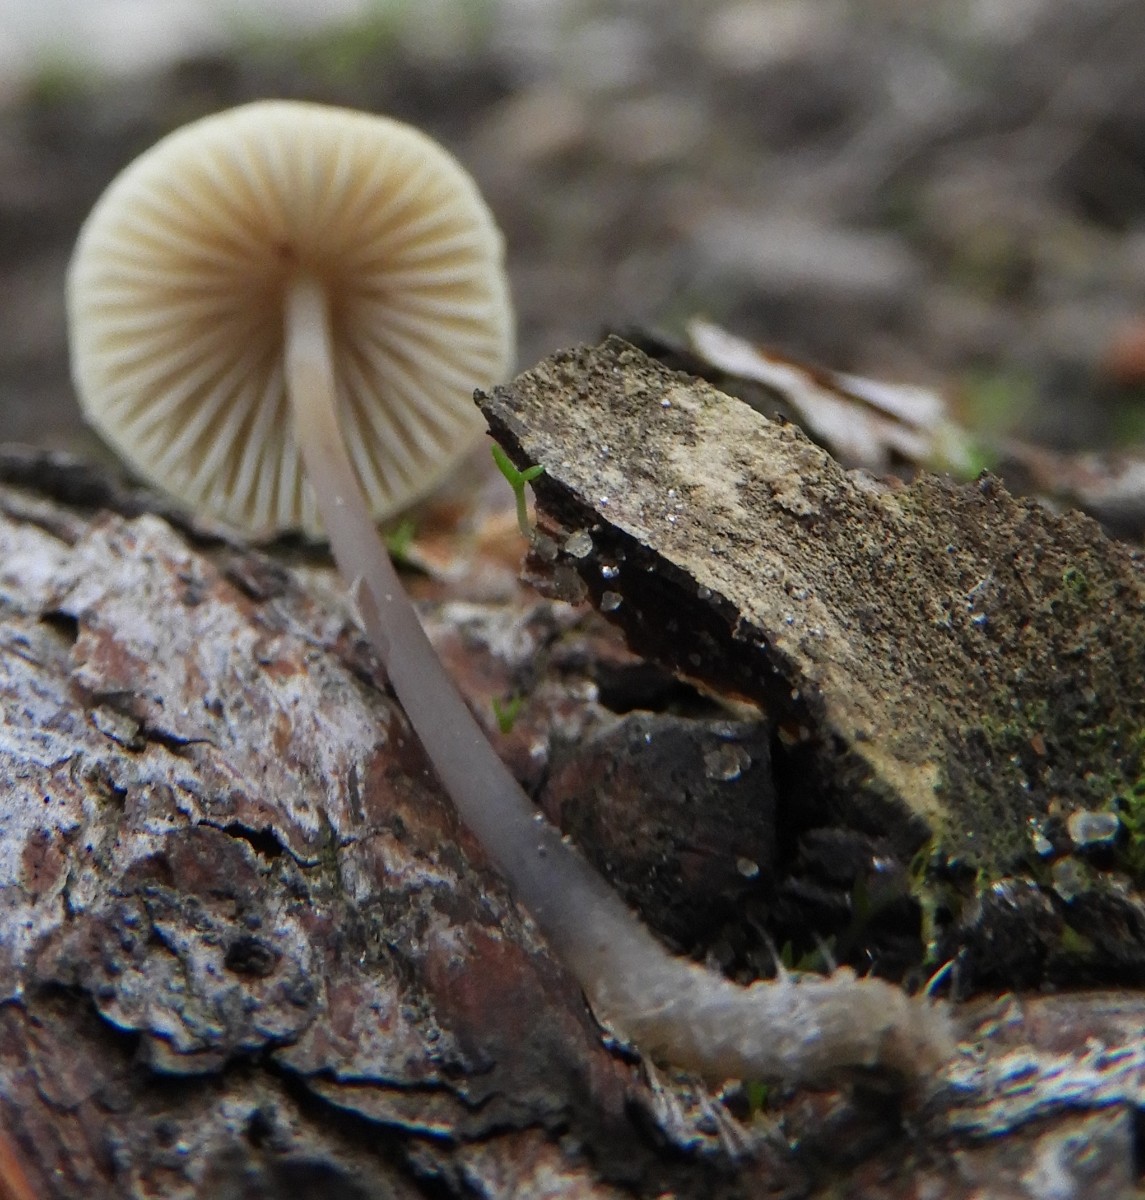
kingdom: Fungi
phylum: Basidiomycota
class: Agaricomycetes
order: Agaricales
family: Mycenaceae
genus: Mycena
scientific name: Mycena arcangeliana
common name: oliven-huesvamp
